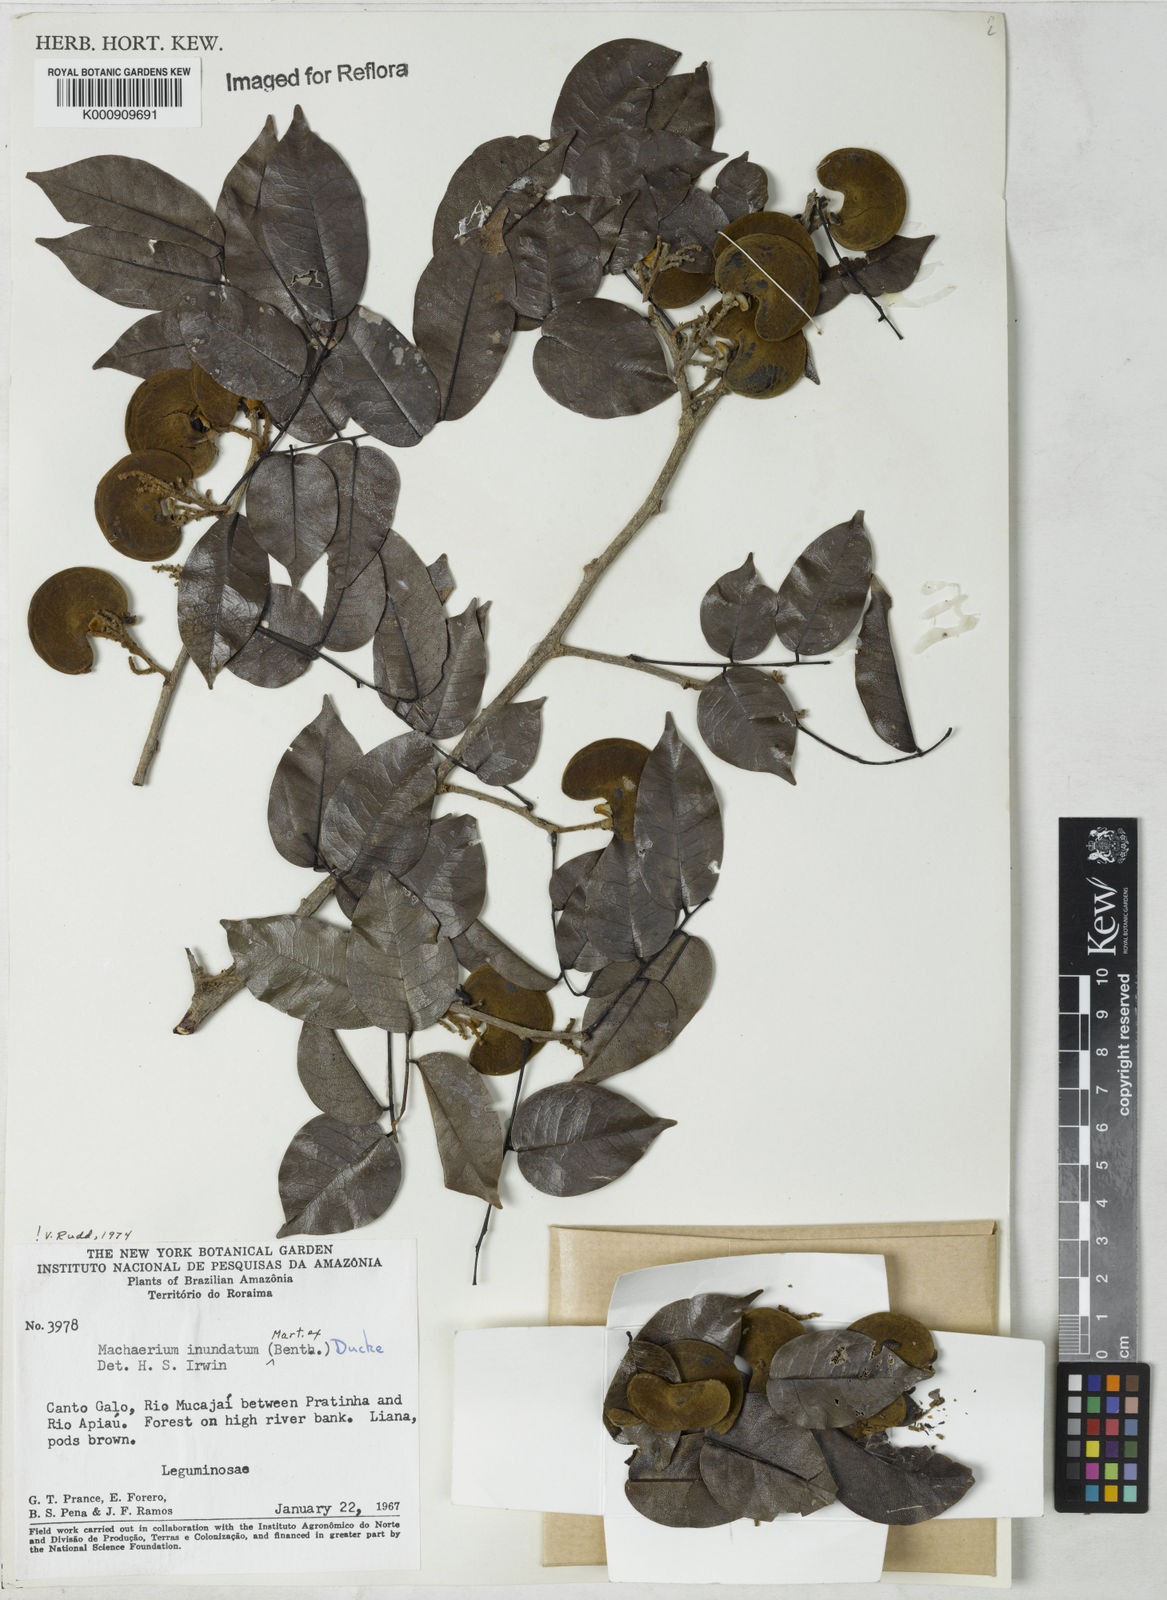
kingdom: Plantae
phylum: Tracheophyta
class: Magnoliopsida
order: Fabales
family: Fabaceae
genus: Machaerium
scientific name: Machaerium inundatum
